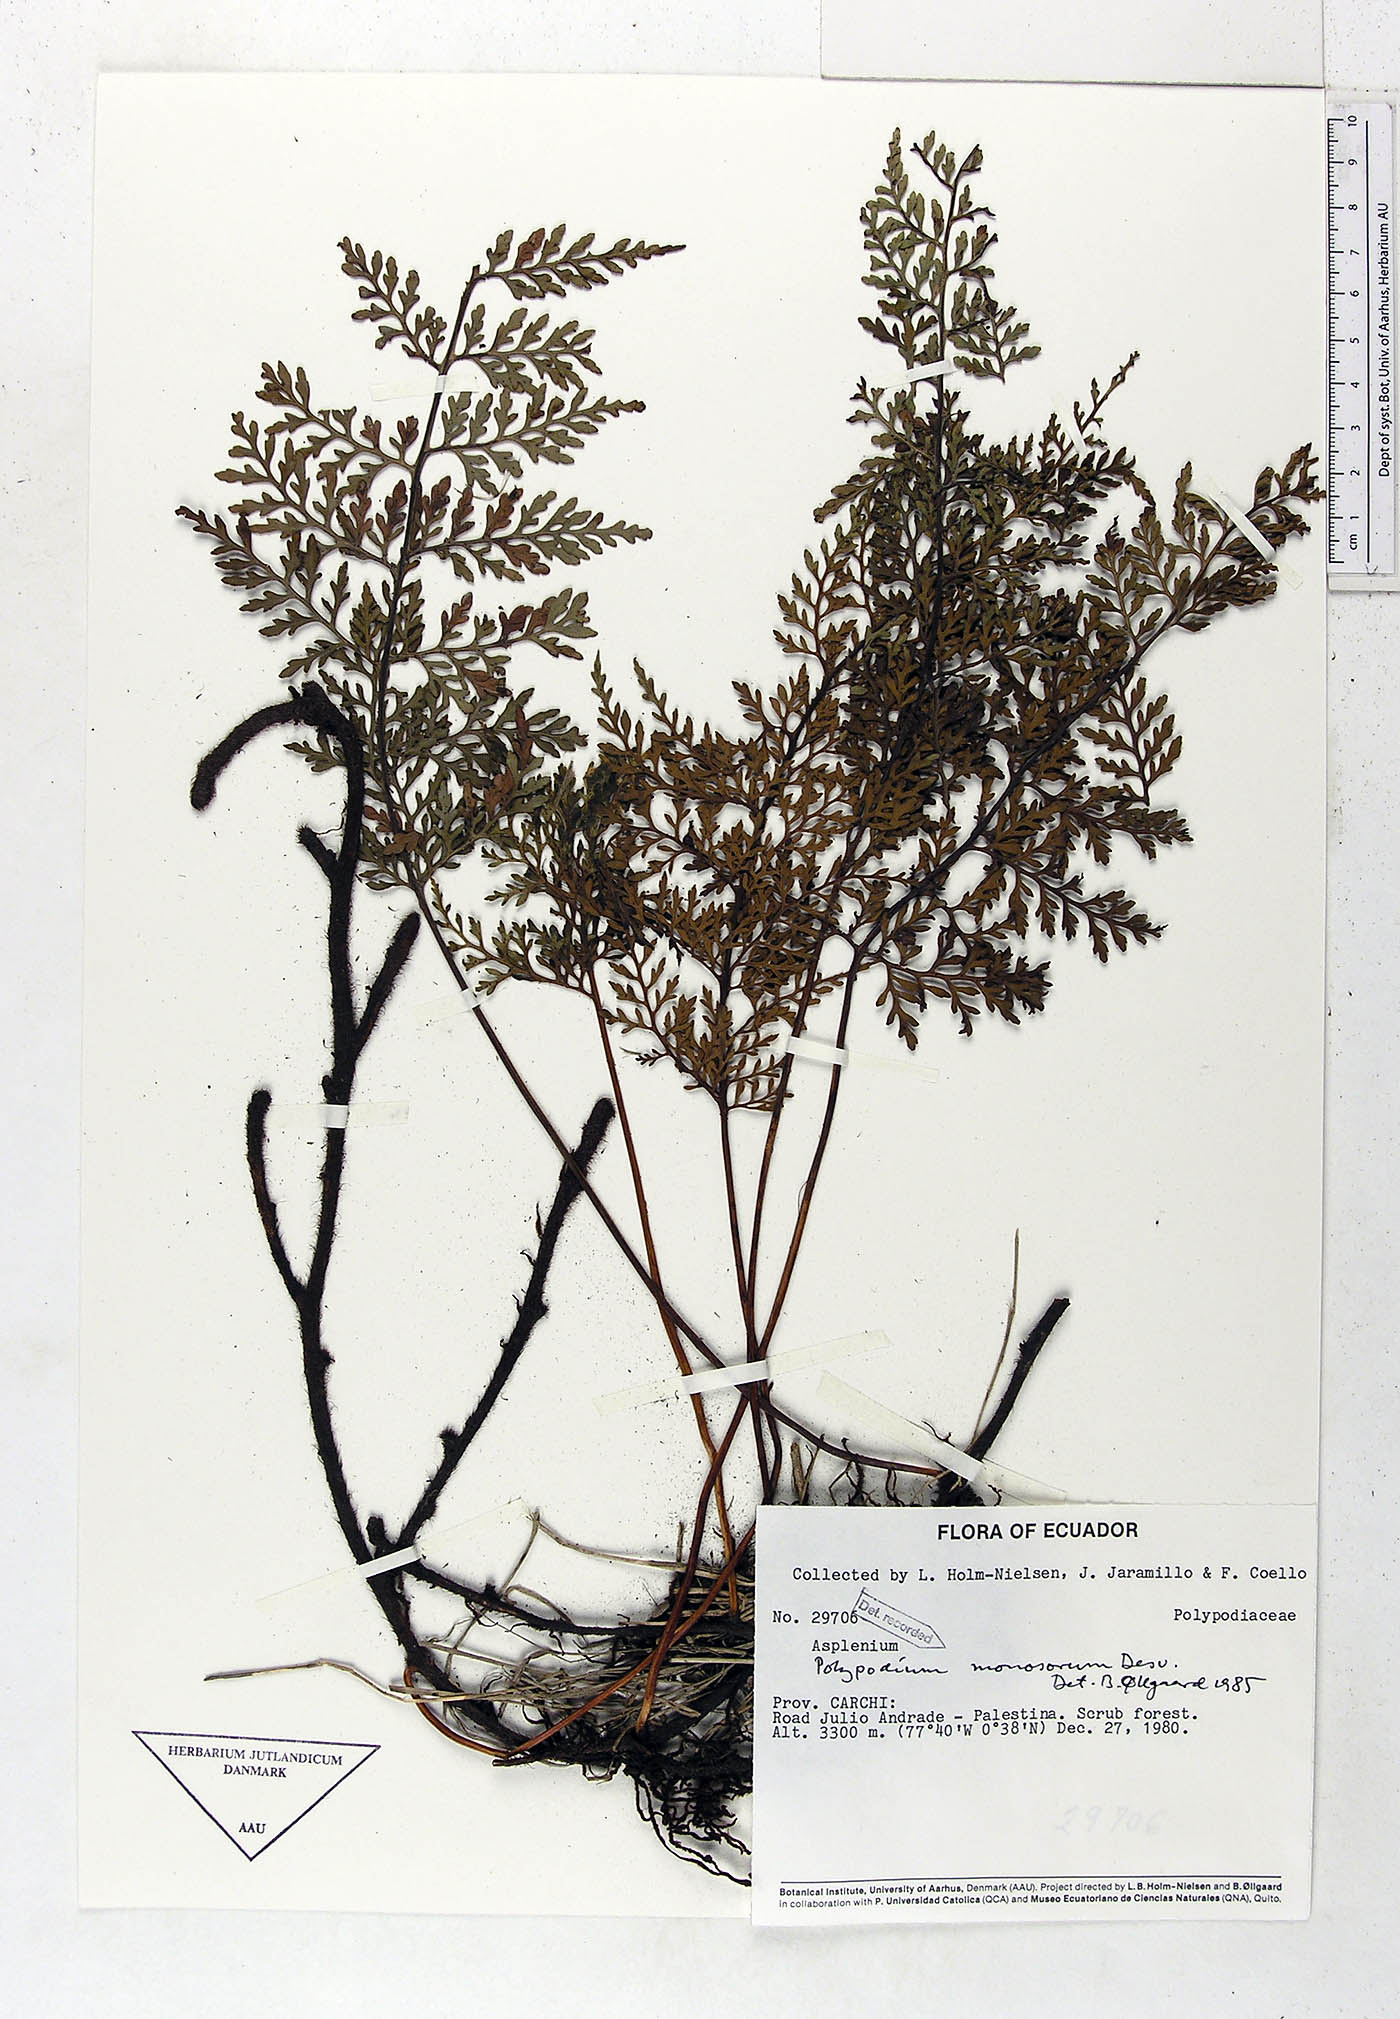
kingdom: Plantae
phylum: Tracheophyta
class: Polypodiopsida
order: Polypodiales
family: Polypodiaceae
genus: Pleopeltis
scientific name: Pleopeltis monosora
